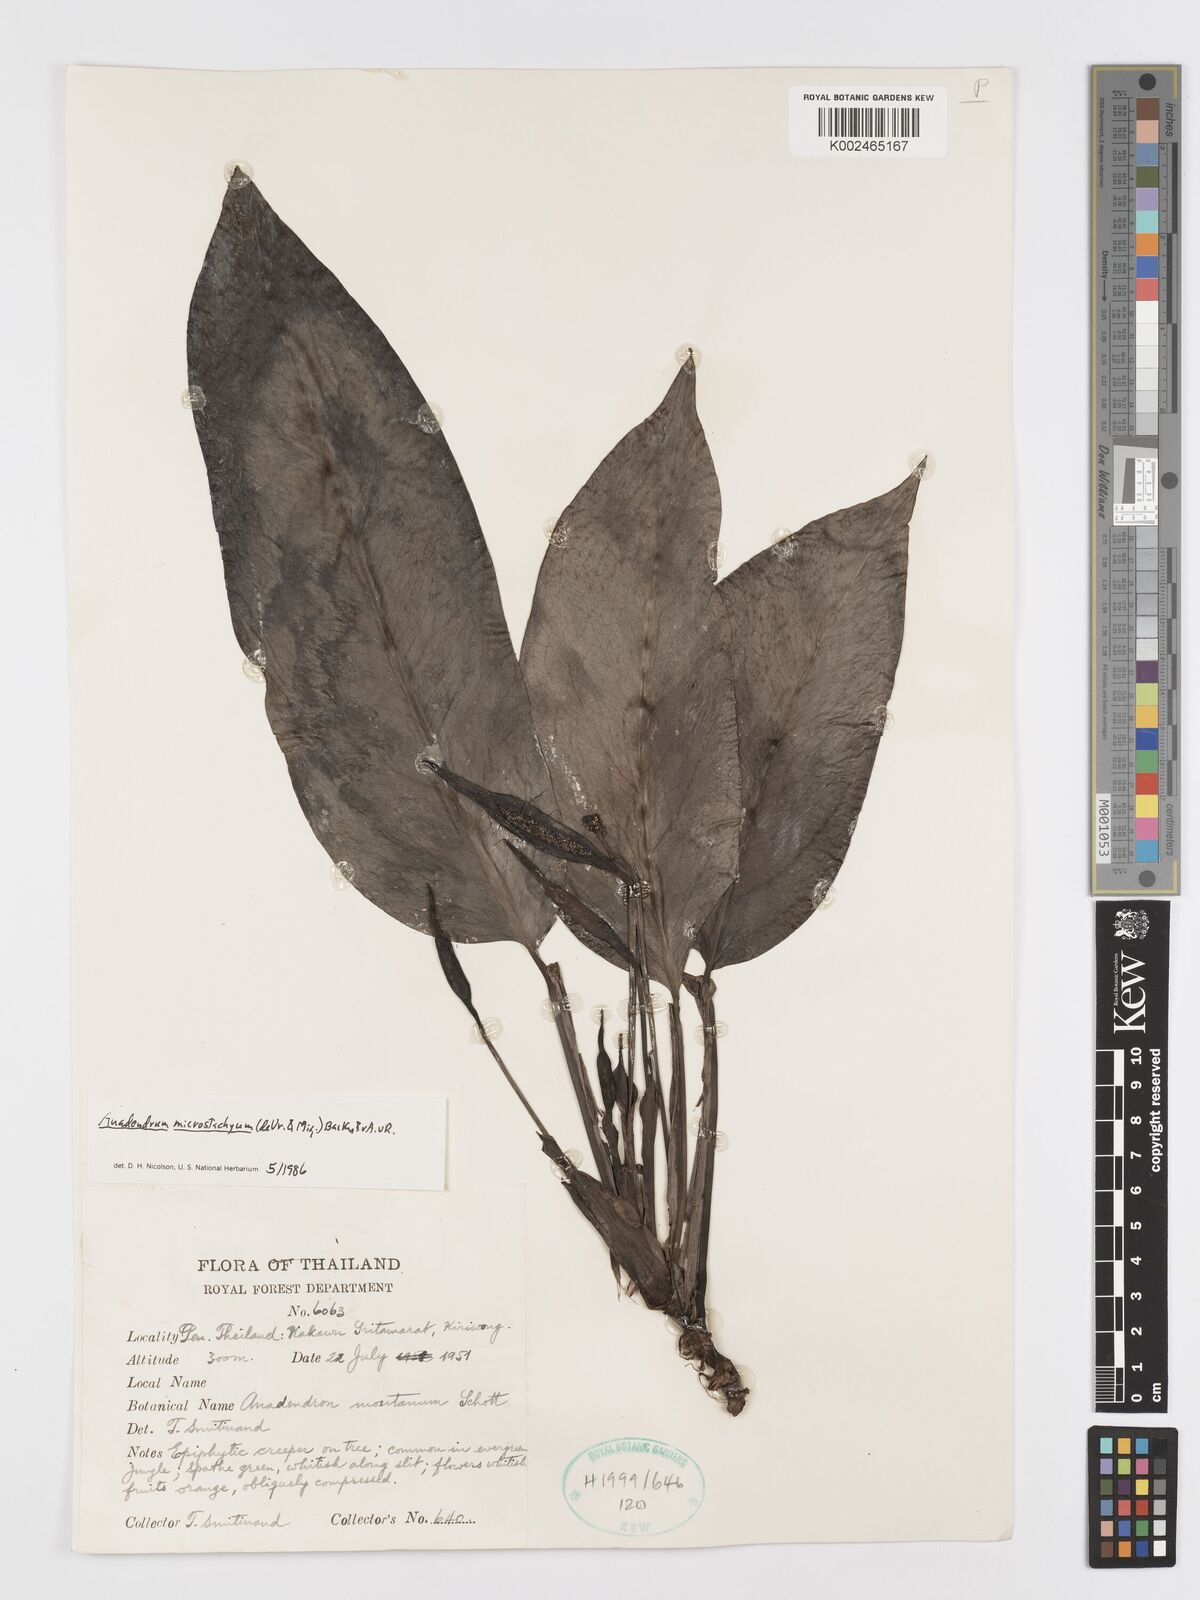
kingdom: Plantae
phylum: Tracheophyta
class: Liliopsida
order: Alismatales
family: Araceae
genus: Anadendrum
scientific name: Anadendrum microstachyum
